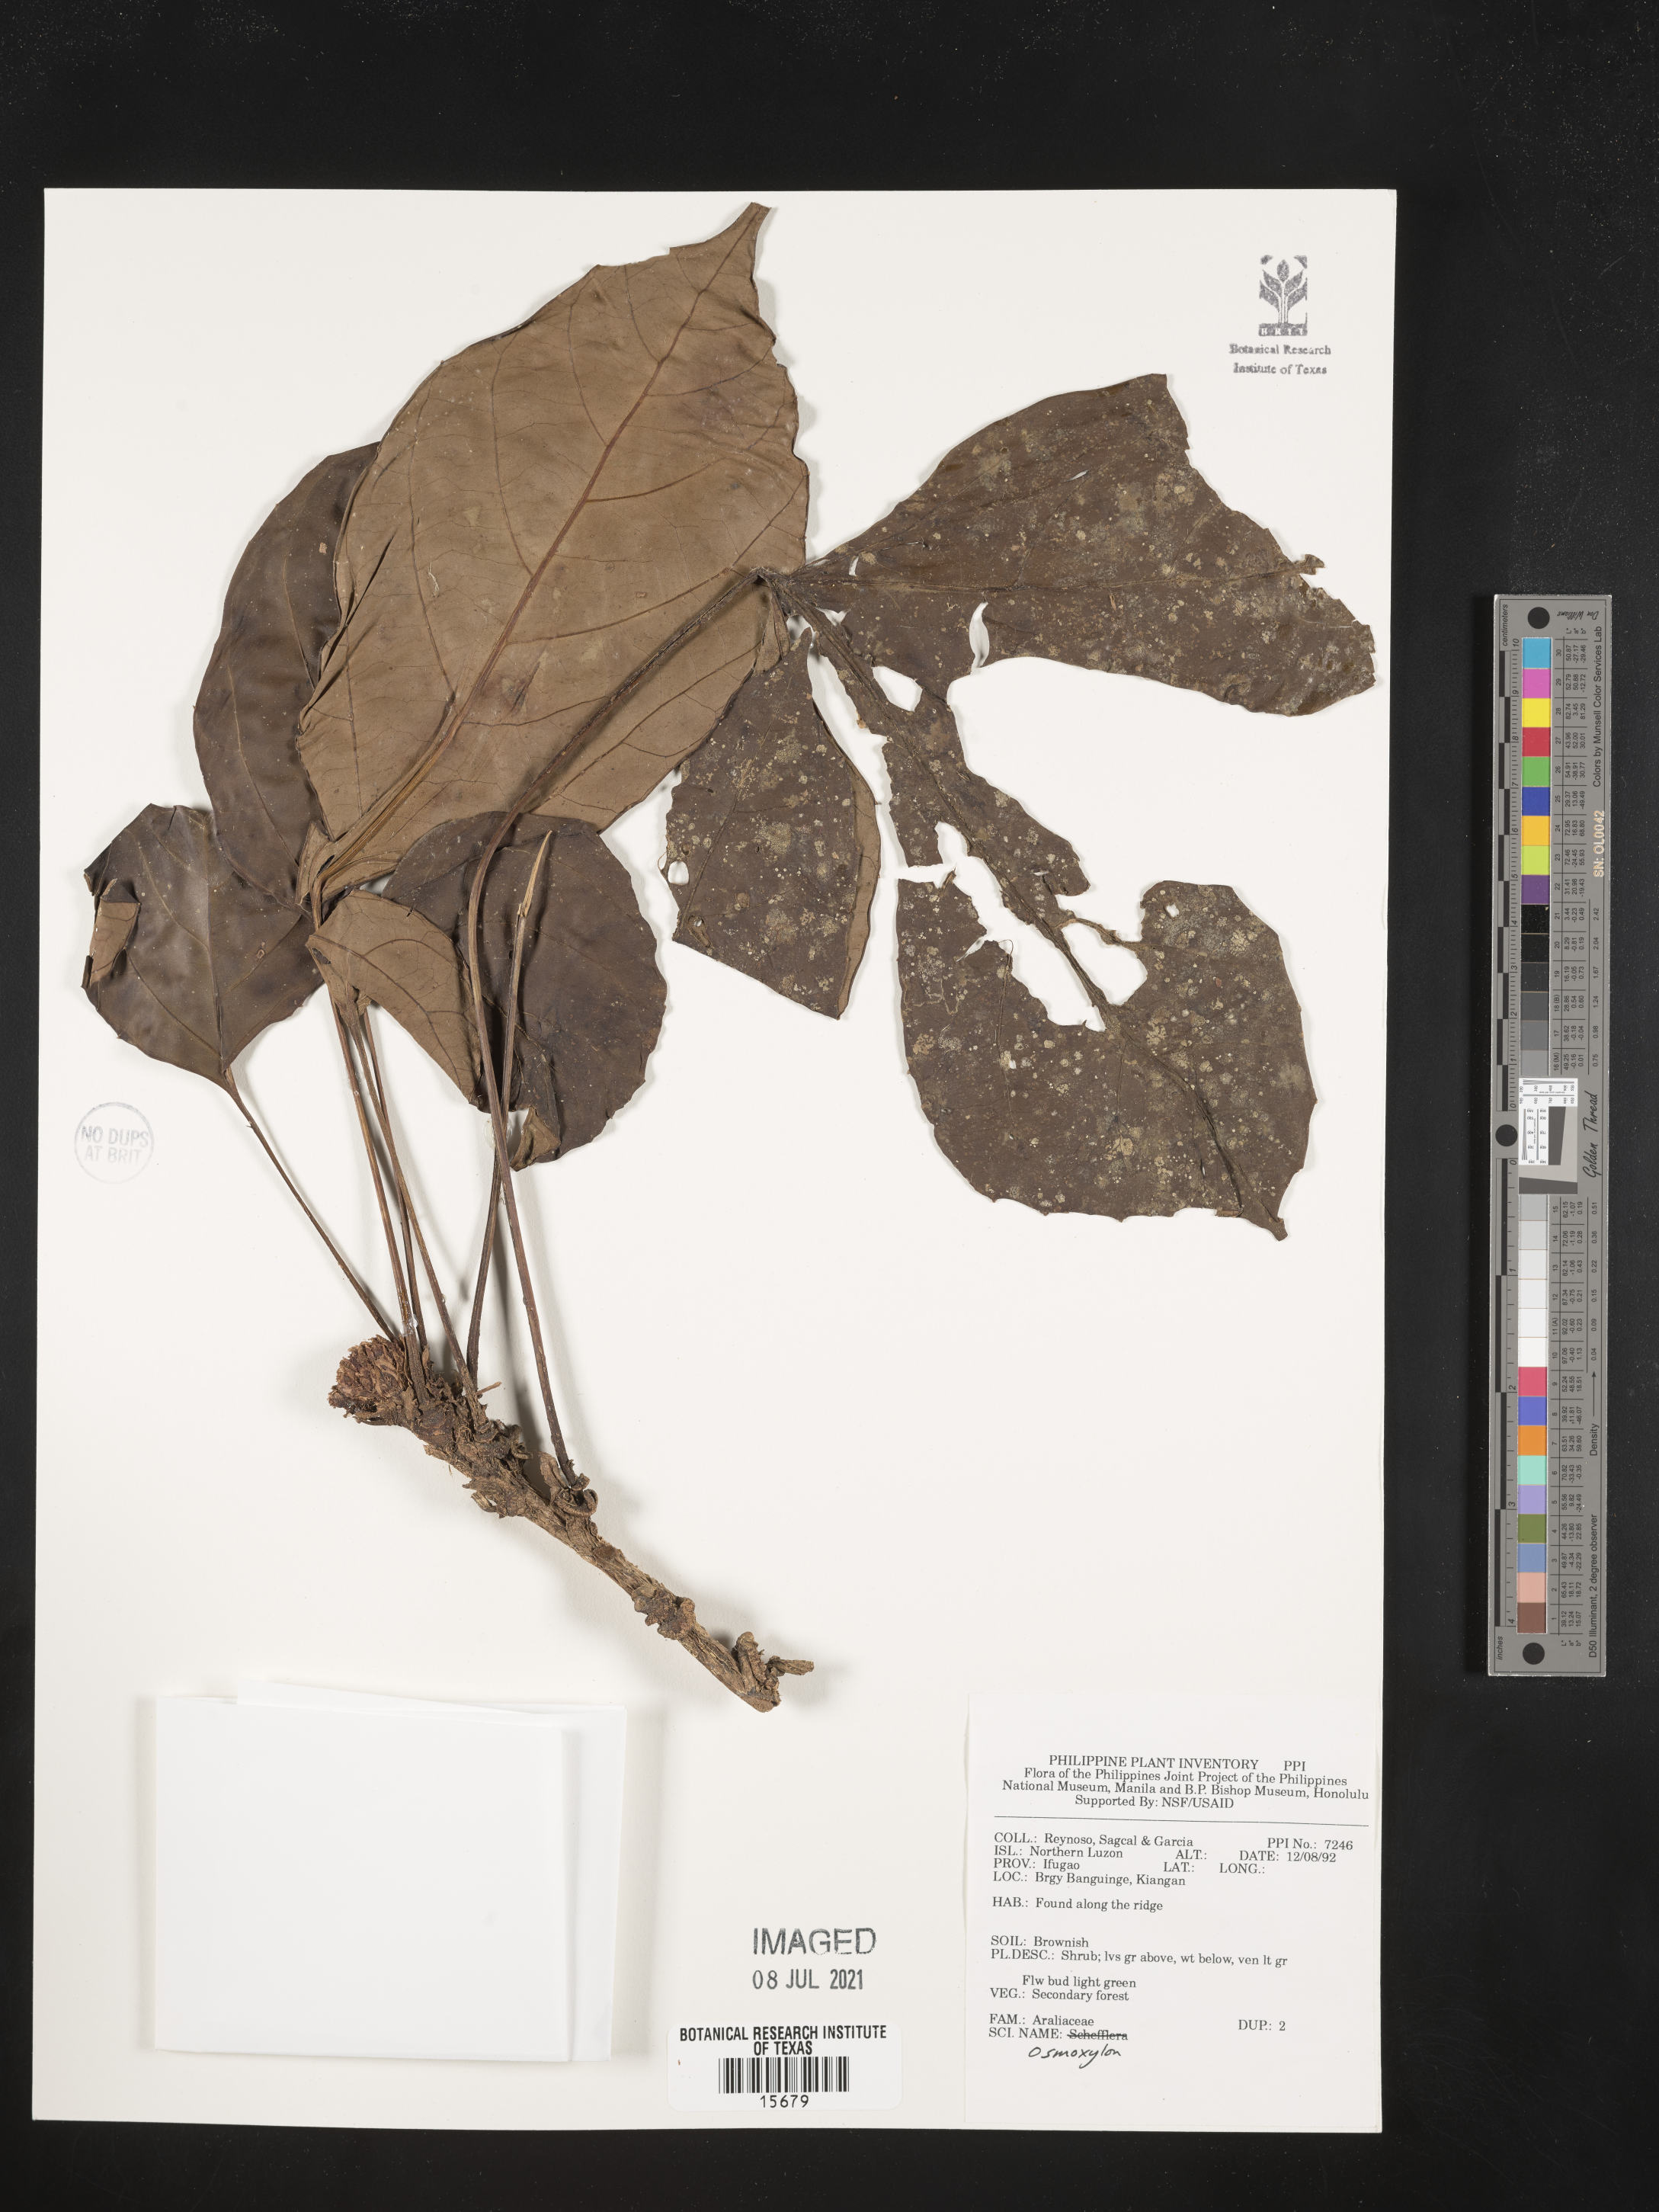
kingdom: Plantae
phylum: Tracheophyta
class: Magnoliopsida
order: Apiales
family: Araliaceae
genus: Osmoxylon
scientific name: Osmoxylon
